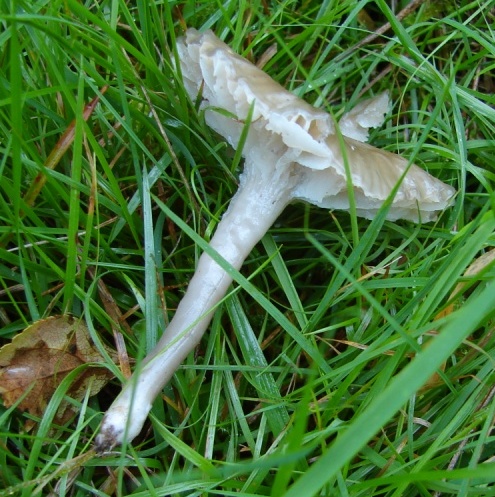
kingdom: Fungi
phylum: Basidiomycota
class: Agaricomycetes
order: Agaricales
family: Hygrophoraceae
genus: Gliophorus
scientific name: Gliophorus irrigatus
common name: slimet vokshat
